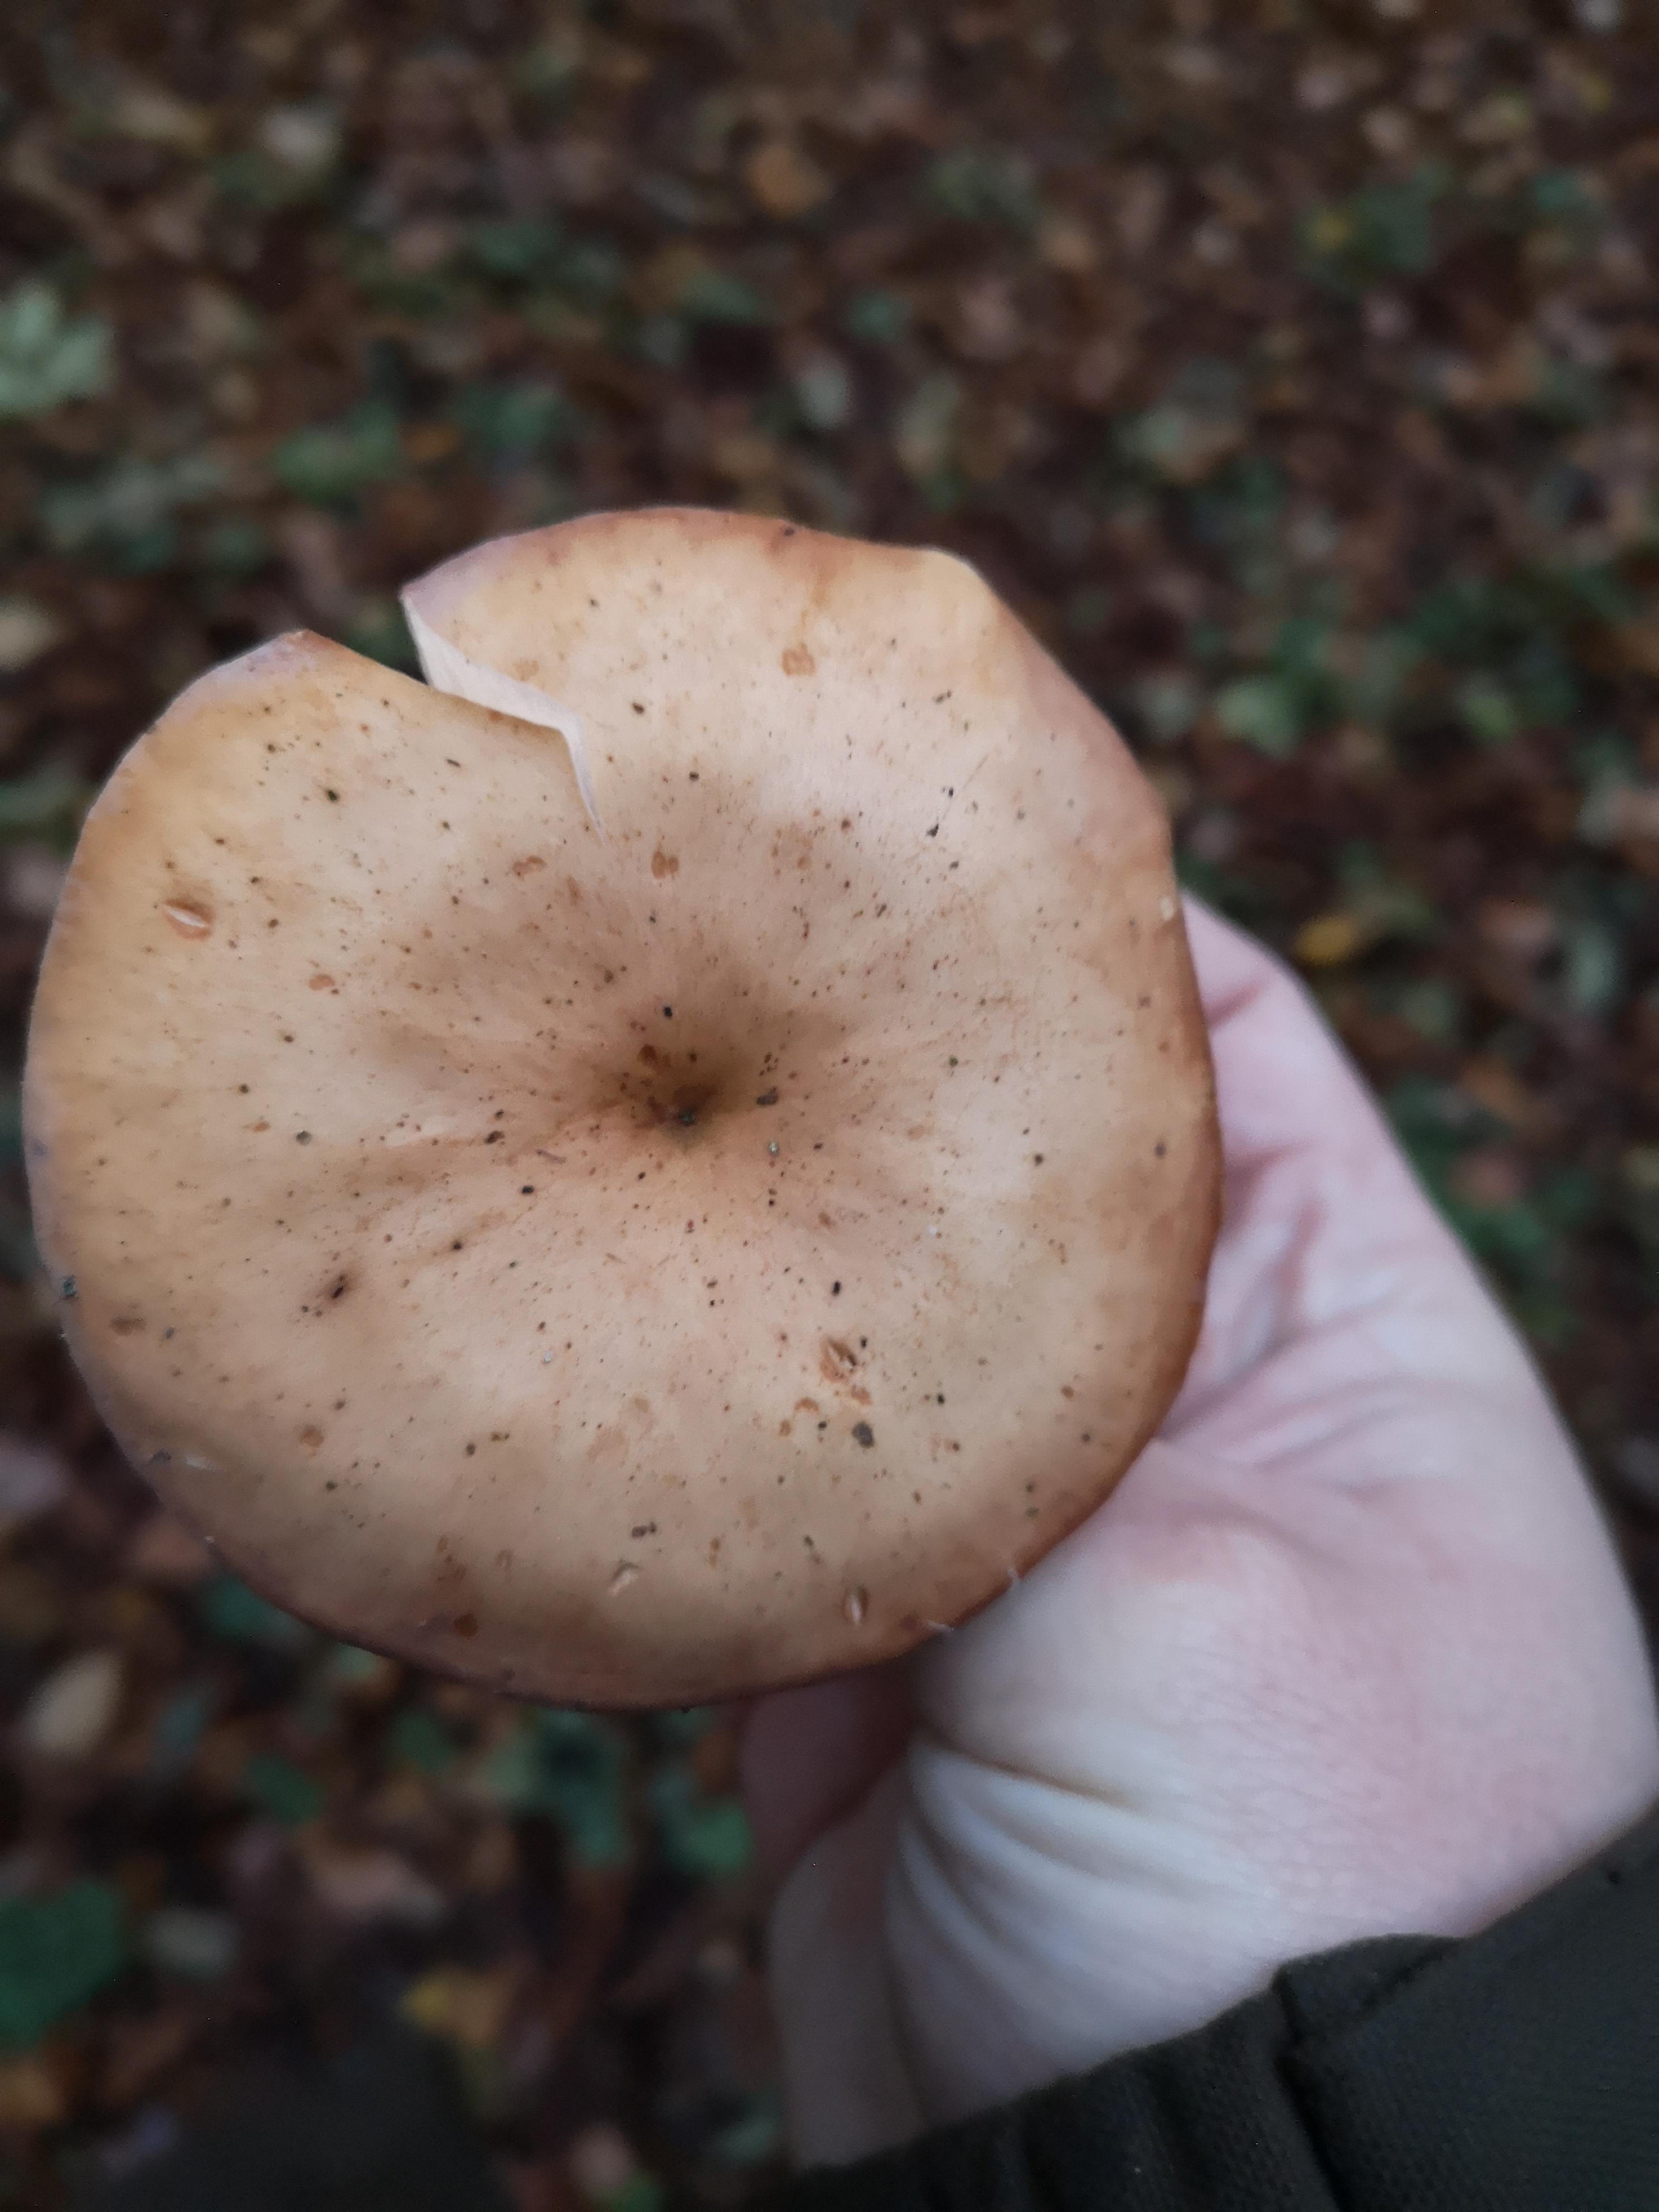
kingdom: Fungi
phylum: Basidiomycota
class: Agaricomycetes
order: Agaricales
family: Tricholomataceae
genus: Paralepista
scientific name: Paralepista flaccida
